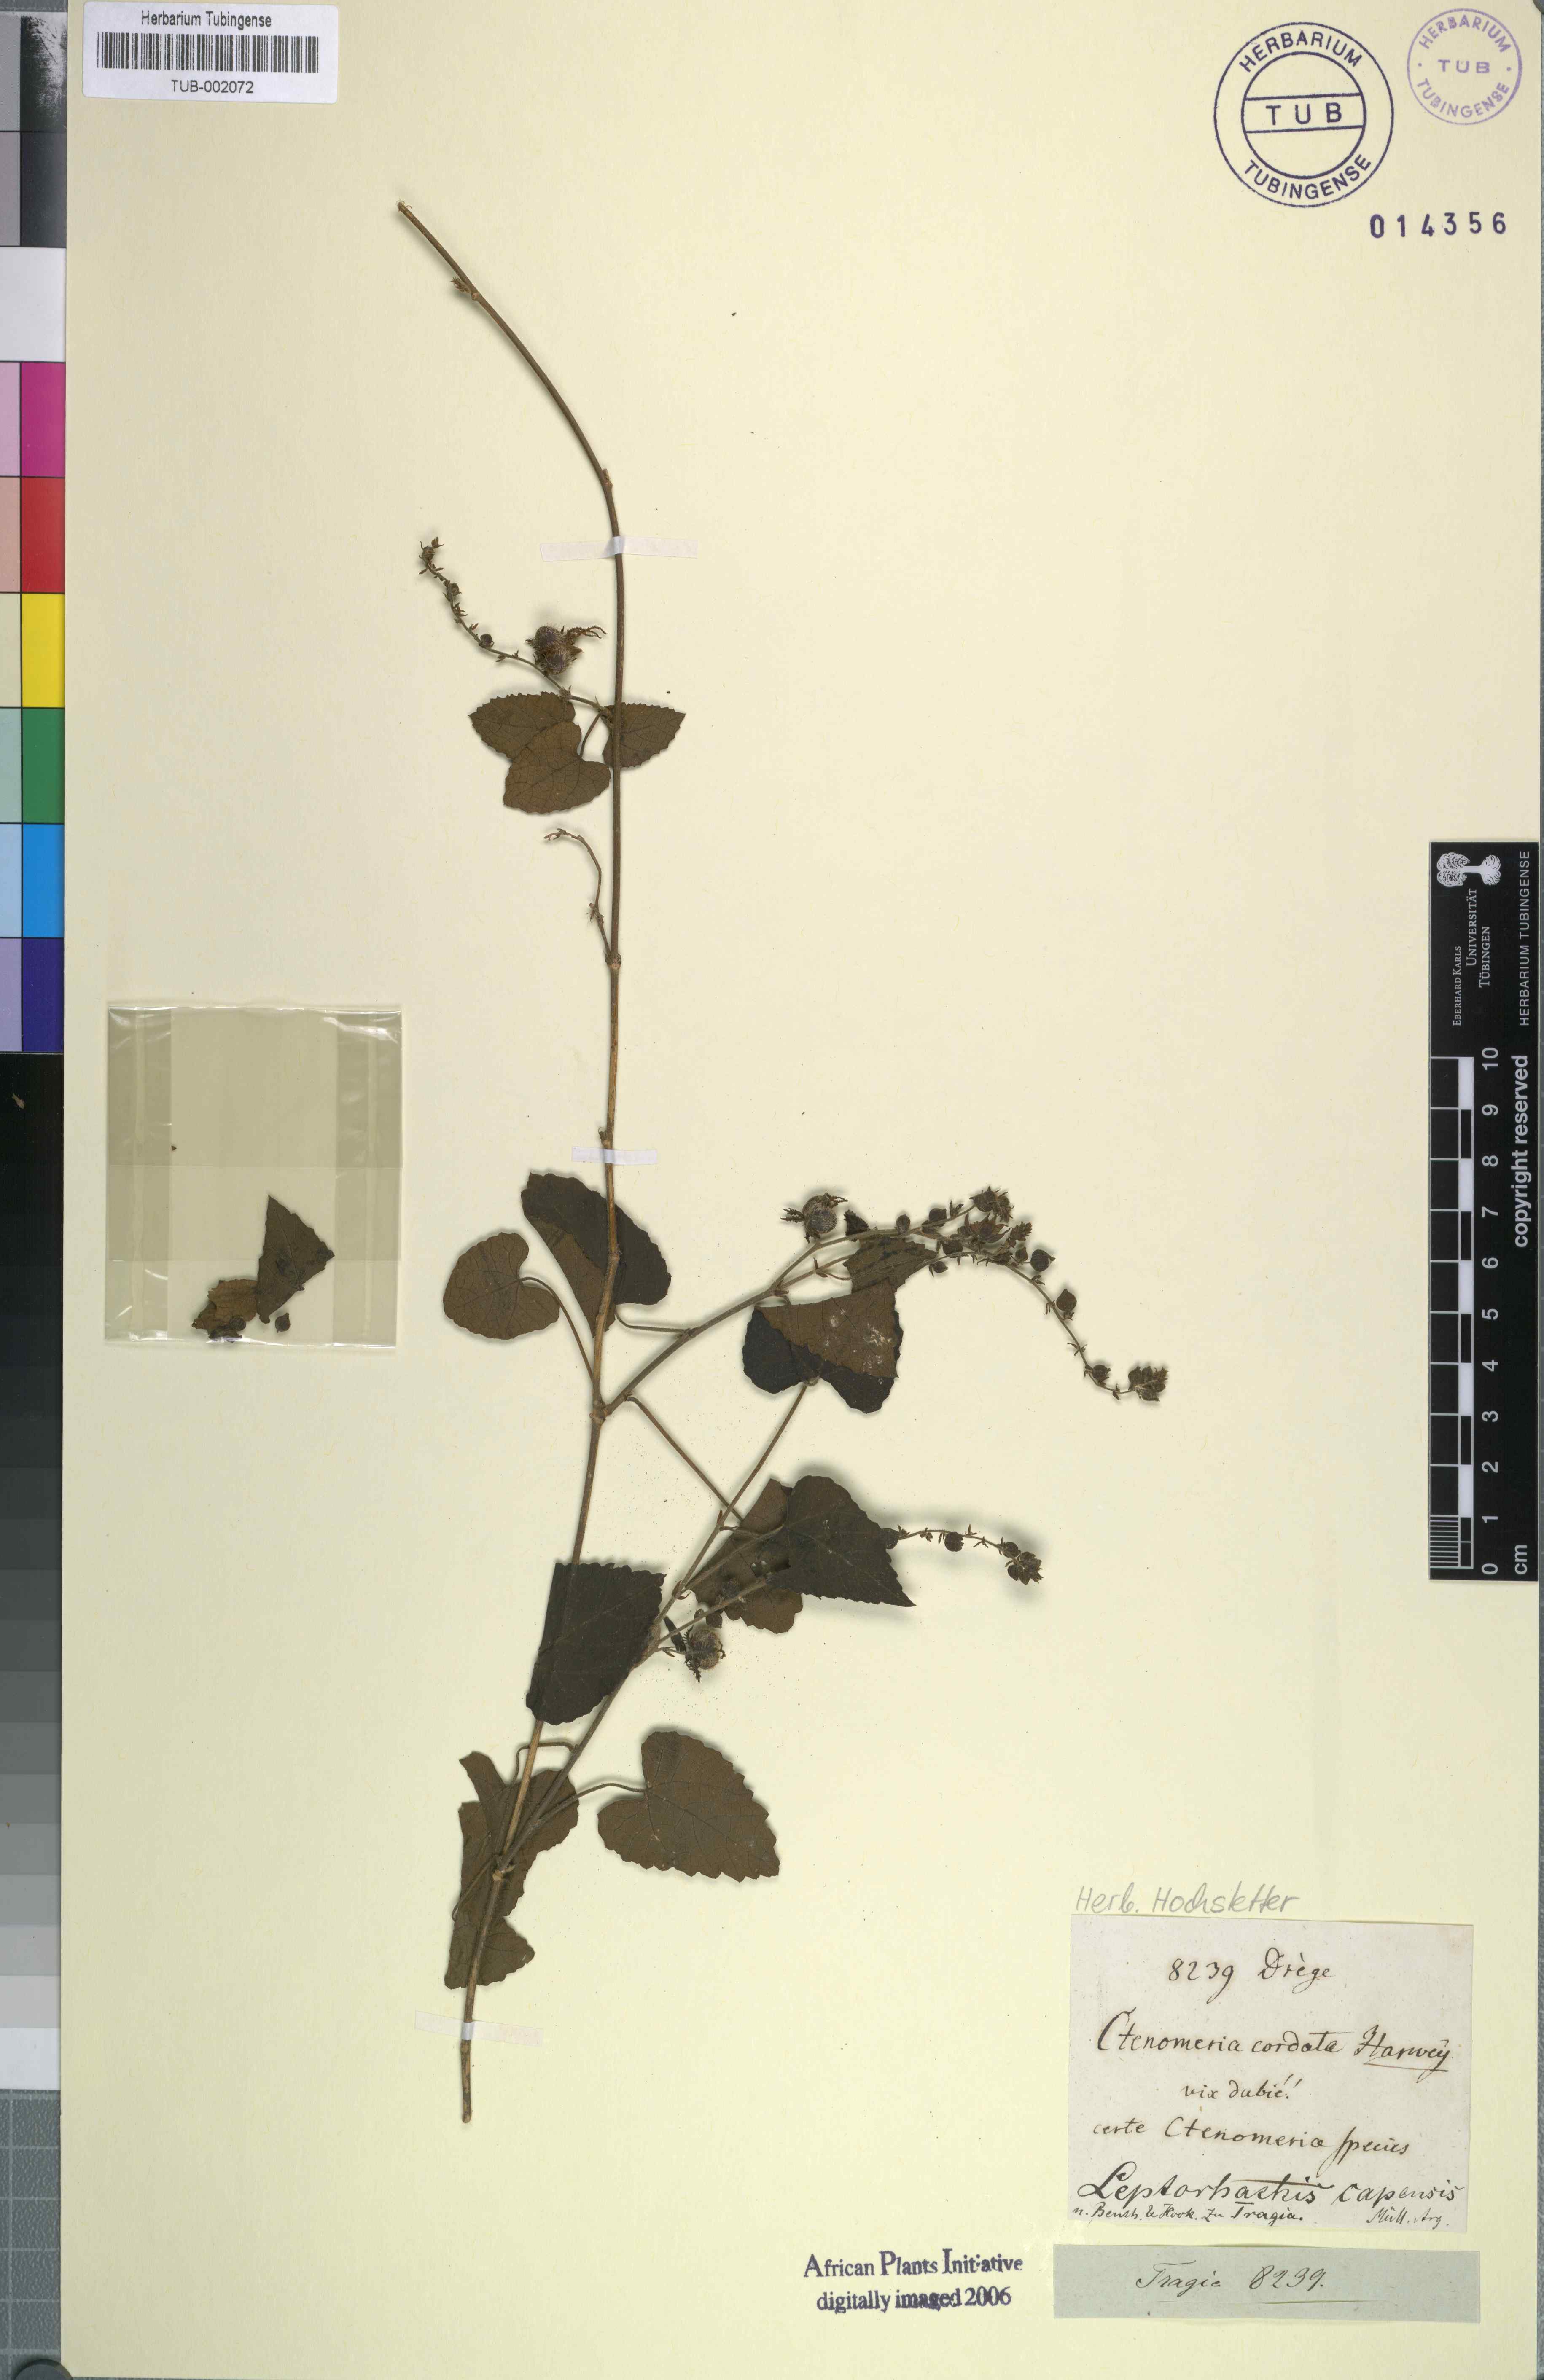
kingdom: Plantae
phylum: Tracheophyta
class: Magnoliopsida
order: Malpighiales
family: Euphorbiaceae
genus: Tragia
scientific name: Tragia capensis
